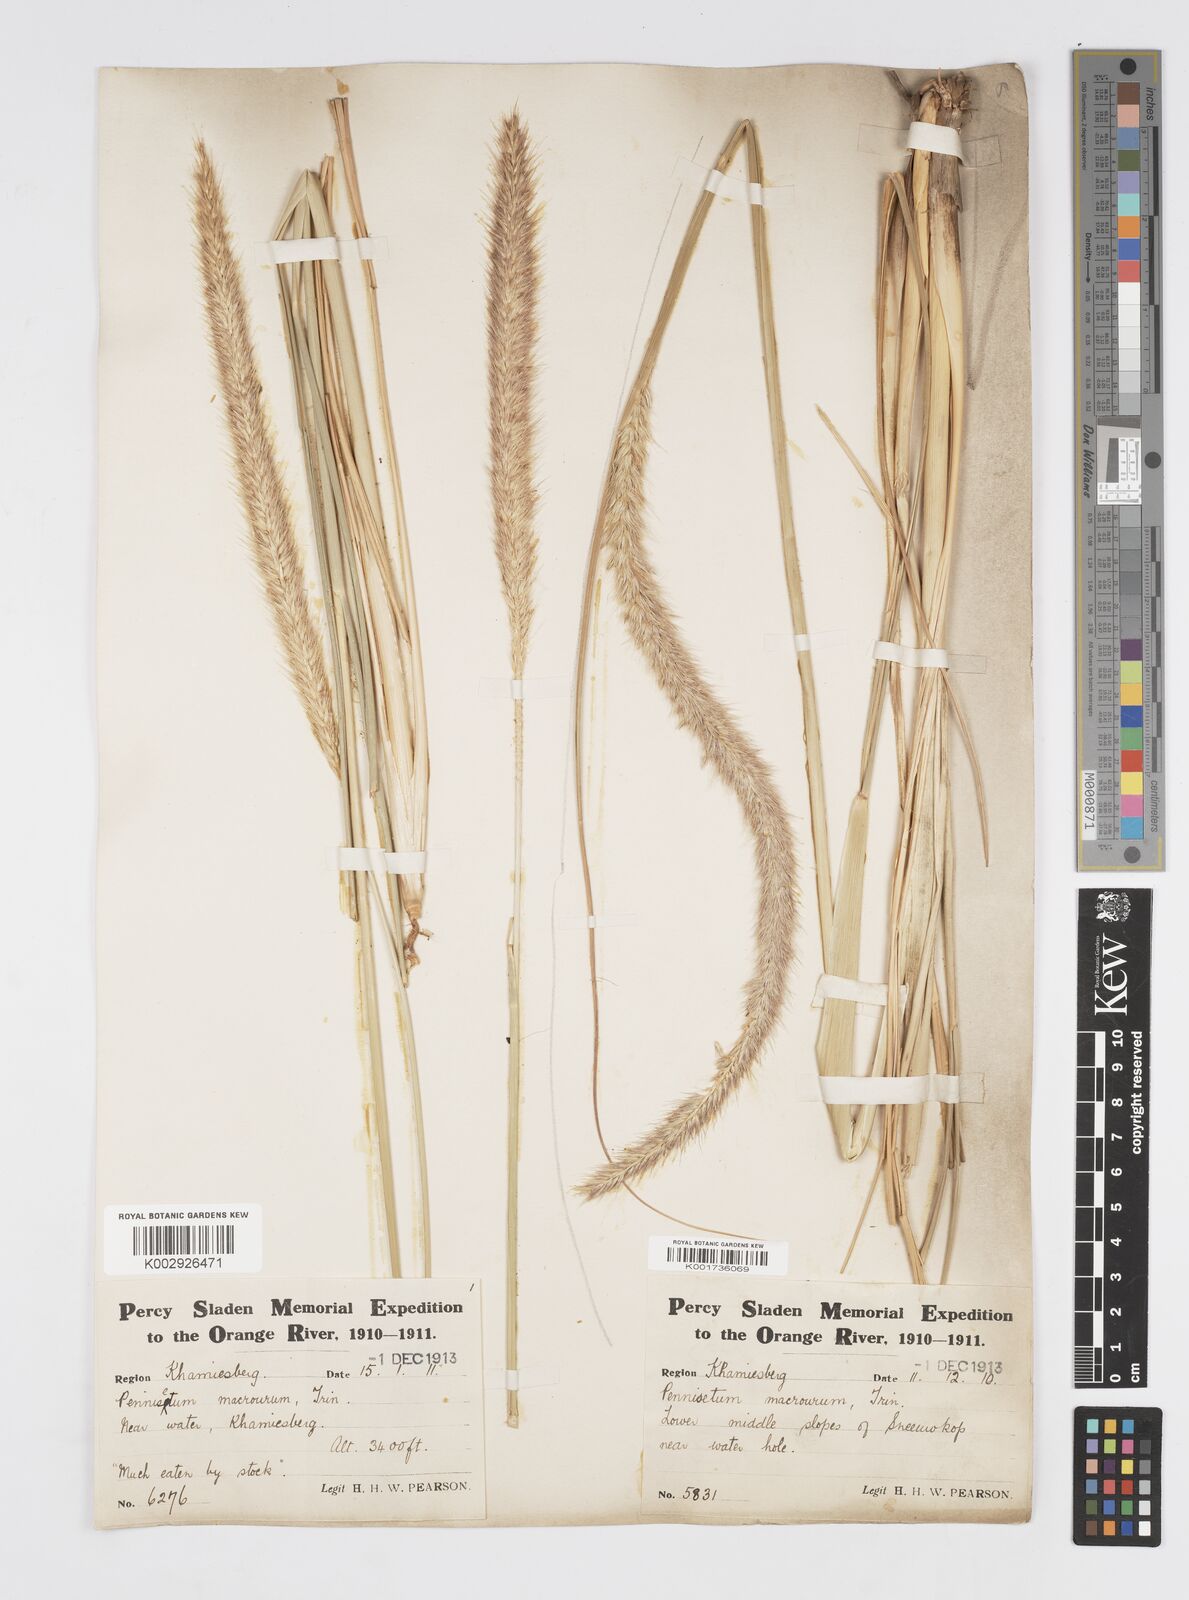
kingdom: Plantae
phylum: Tracheophyta
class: Liliopsida
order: Poales
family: Poaceae
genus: Cenchrus
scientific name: Cenchrus caudatus
